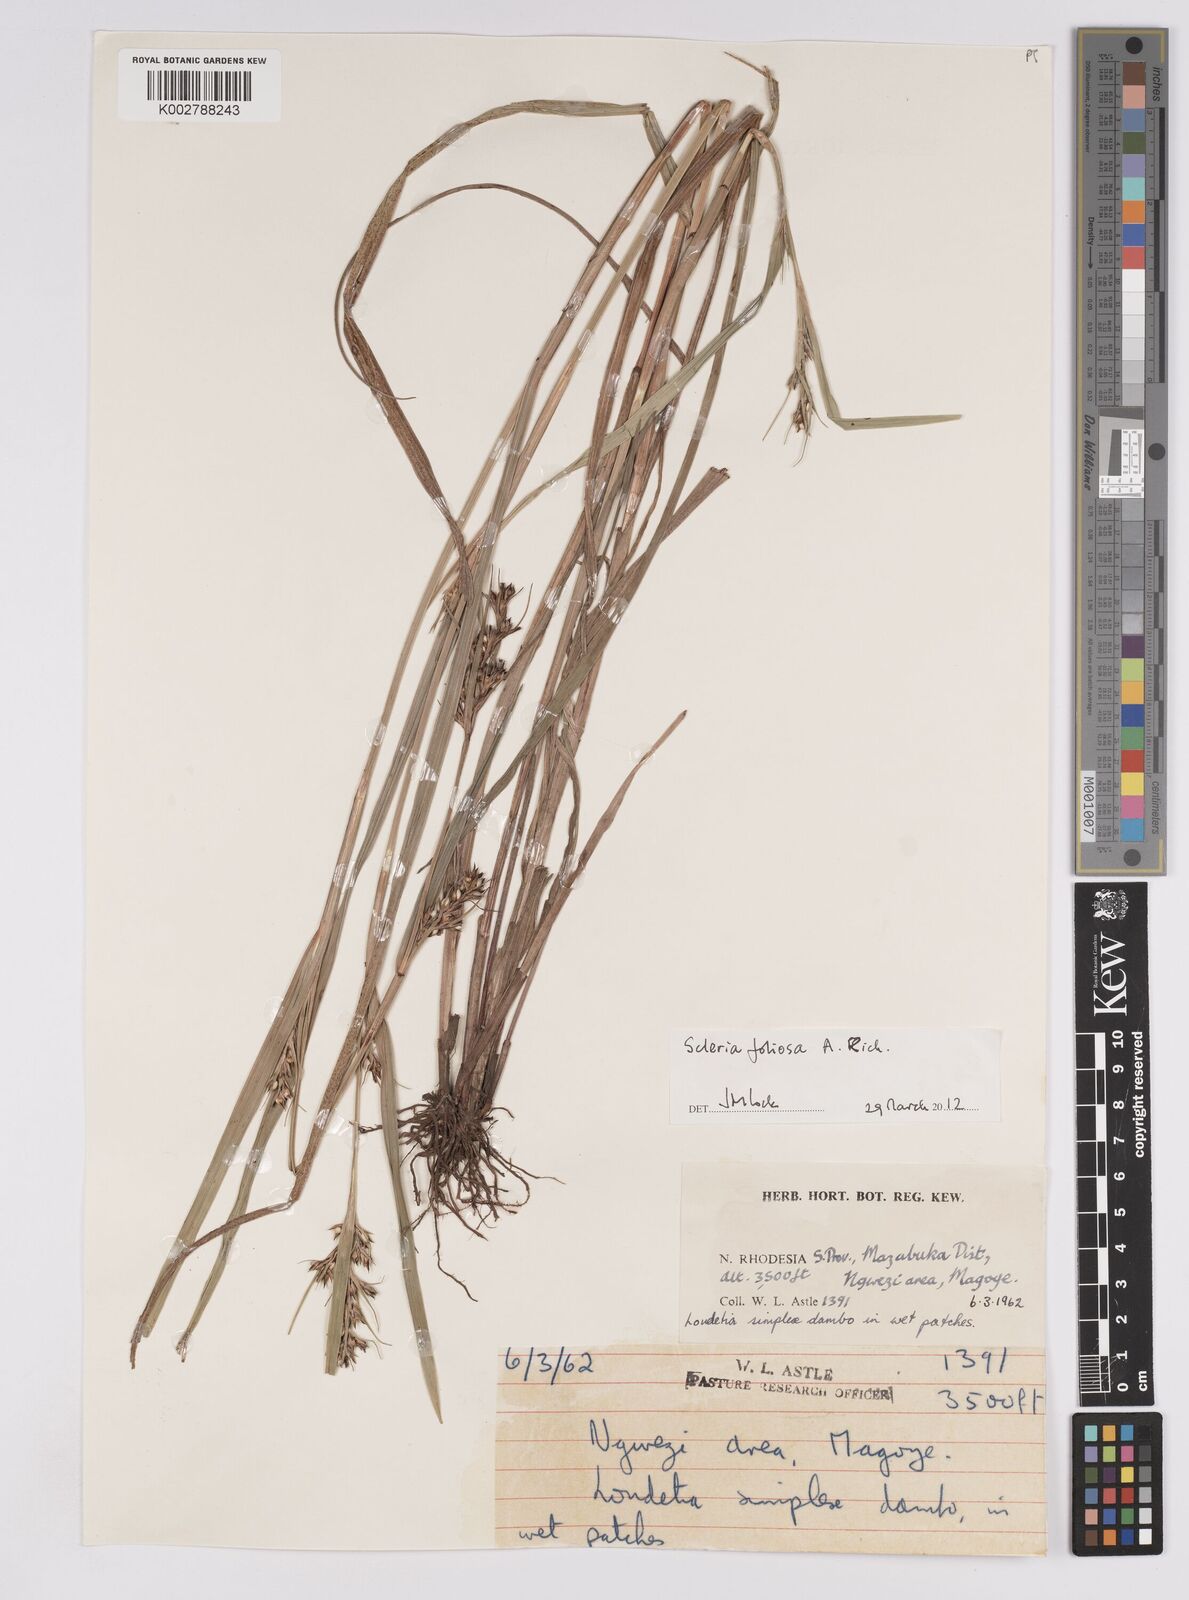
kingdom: Plantae
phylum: Tracheophyta
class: Liliopsida
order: Poales
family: Cyperaceae
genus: Scleria
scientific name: Scleria foliosa
